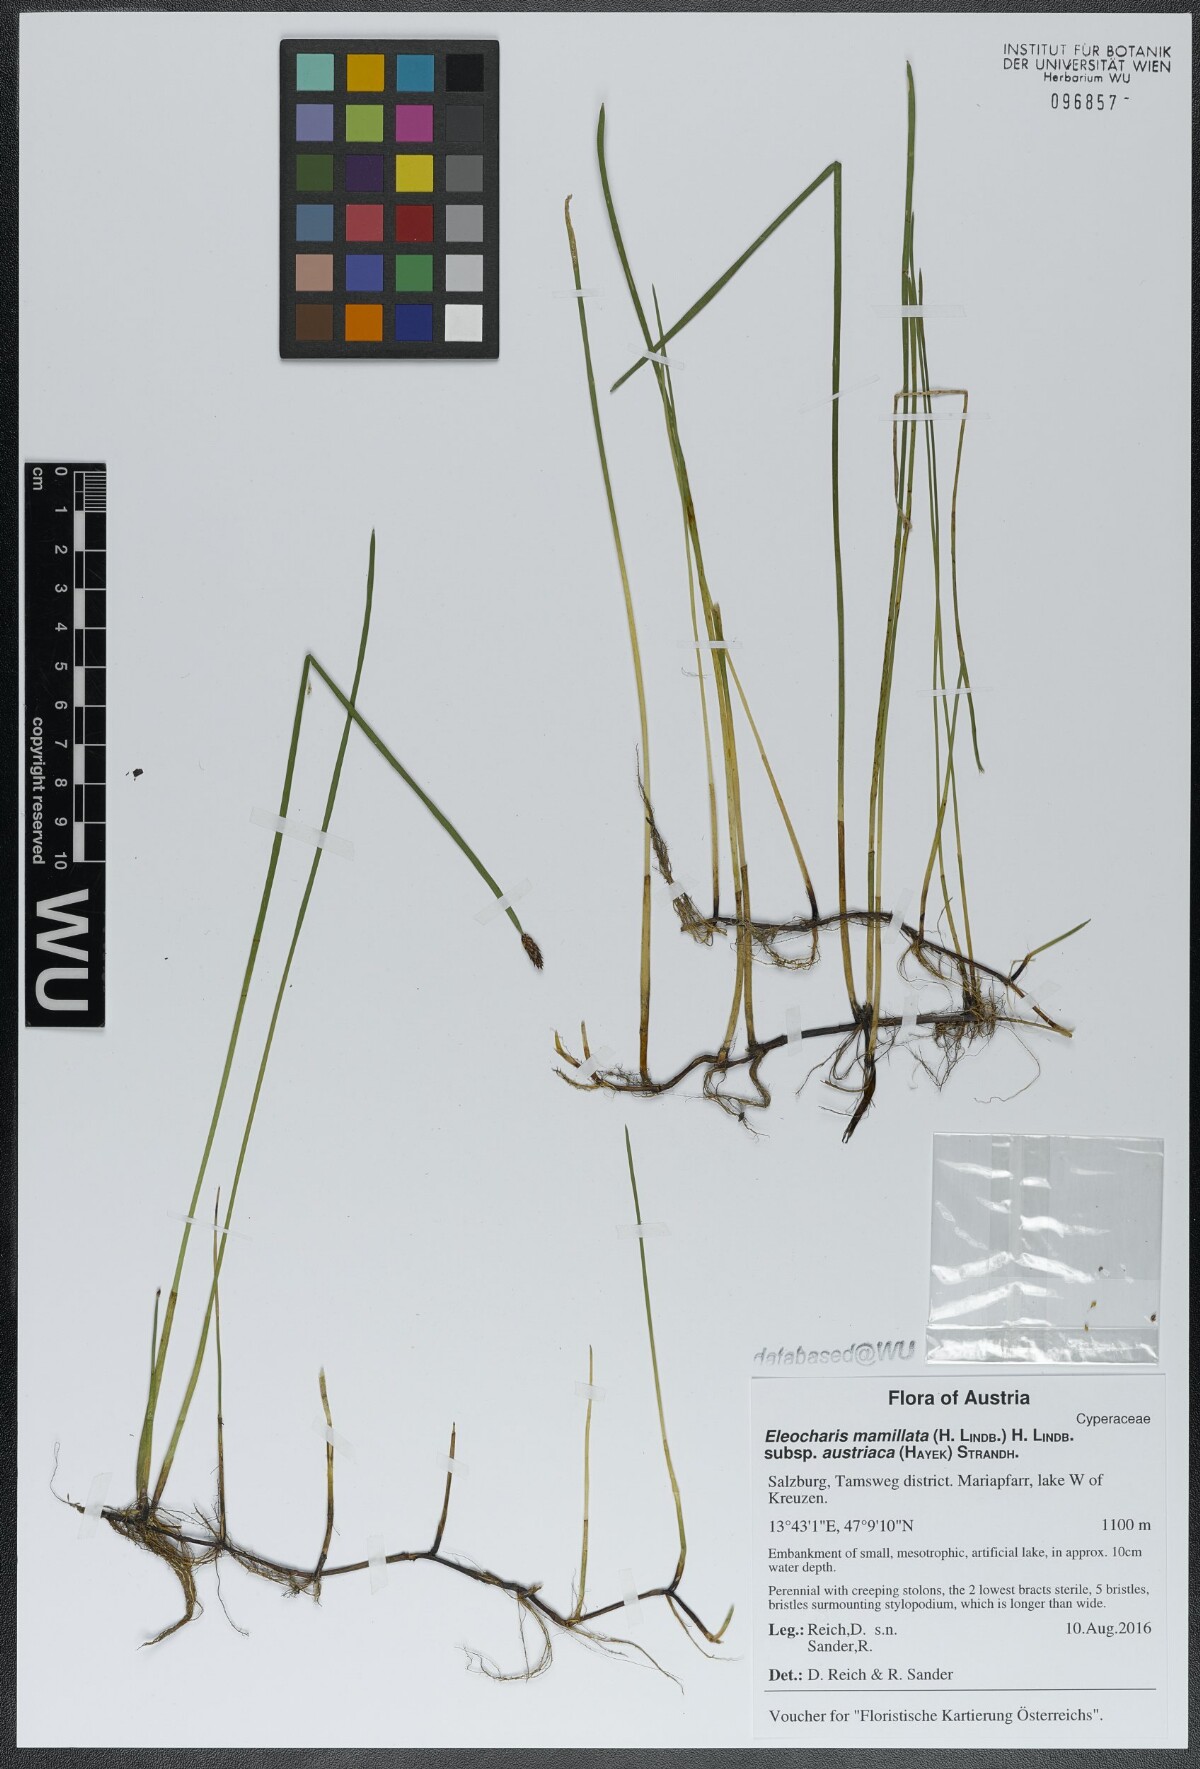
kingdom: Plantae
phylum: Tracheophyta
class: Liliopsida
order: Poales
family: Cyperaceae
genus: Eleocharis
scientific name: Eleocharis mamillata
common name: Northern spike-rush
